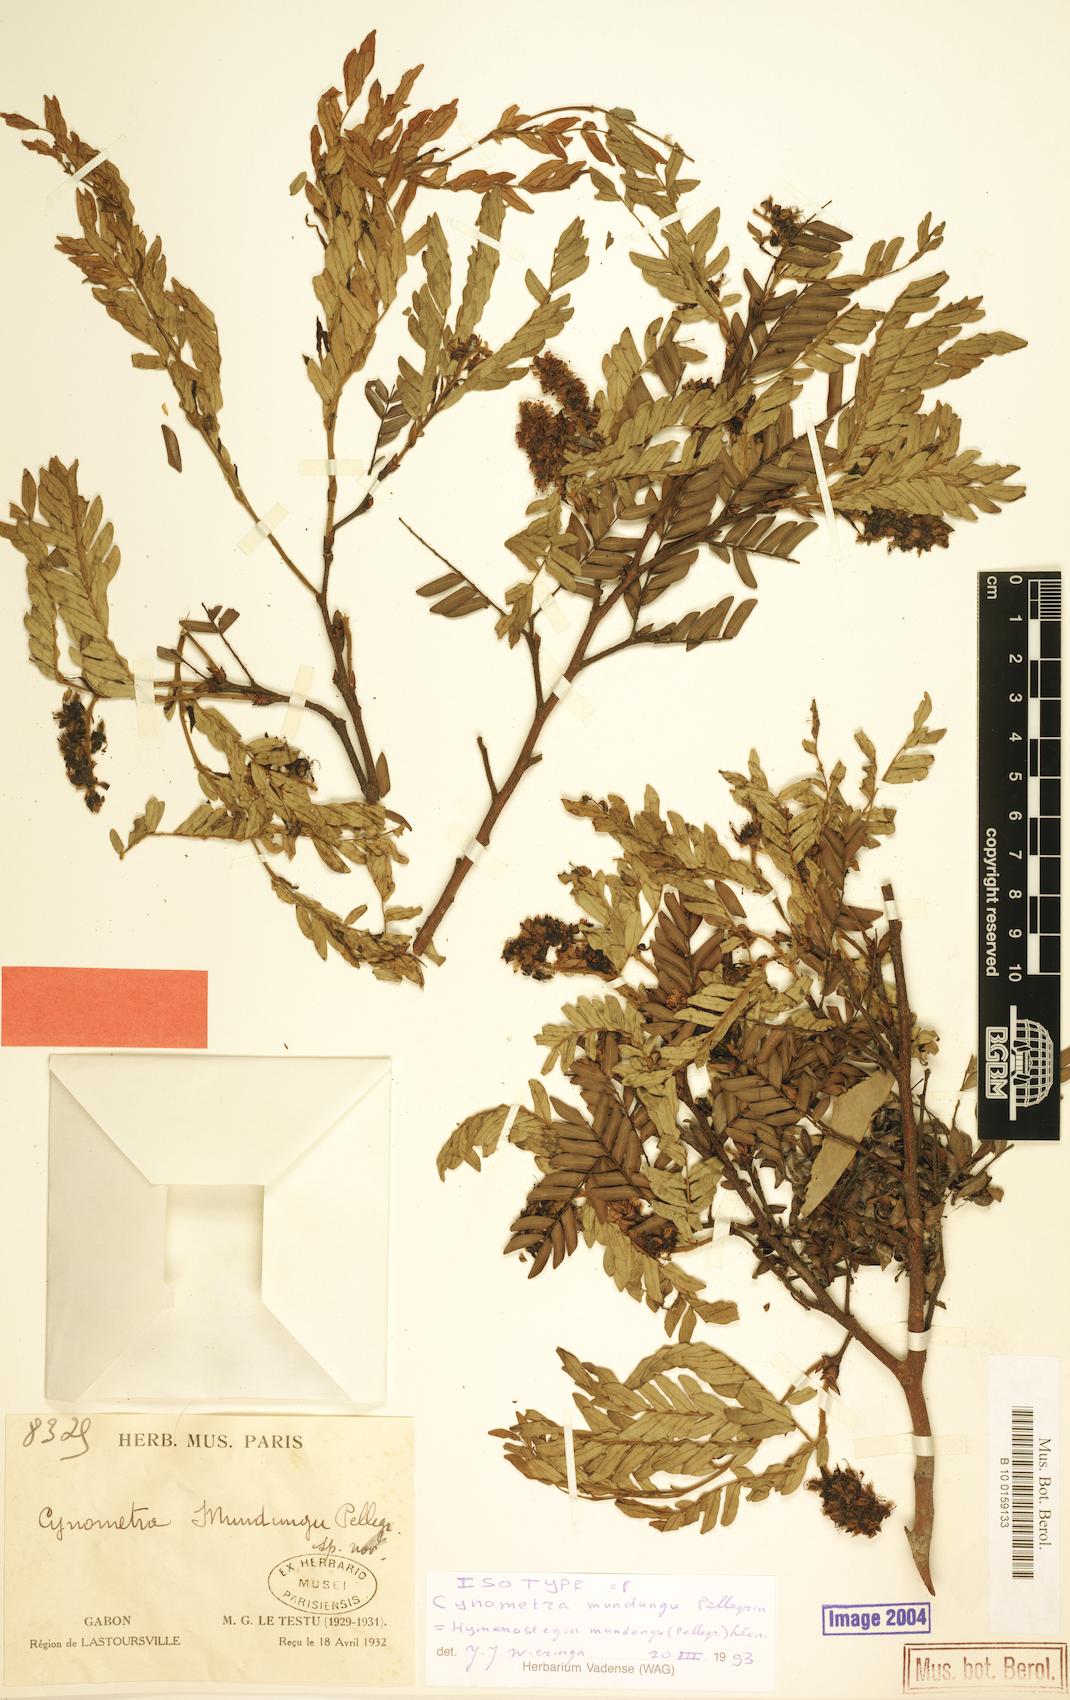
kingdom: Plantae
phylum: Tracheophyta
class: Magnoliopsida
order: Fabales
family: Fabaceae
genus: Hymenostegia
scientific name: Hymenostegia mundungu
